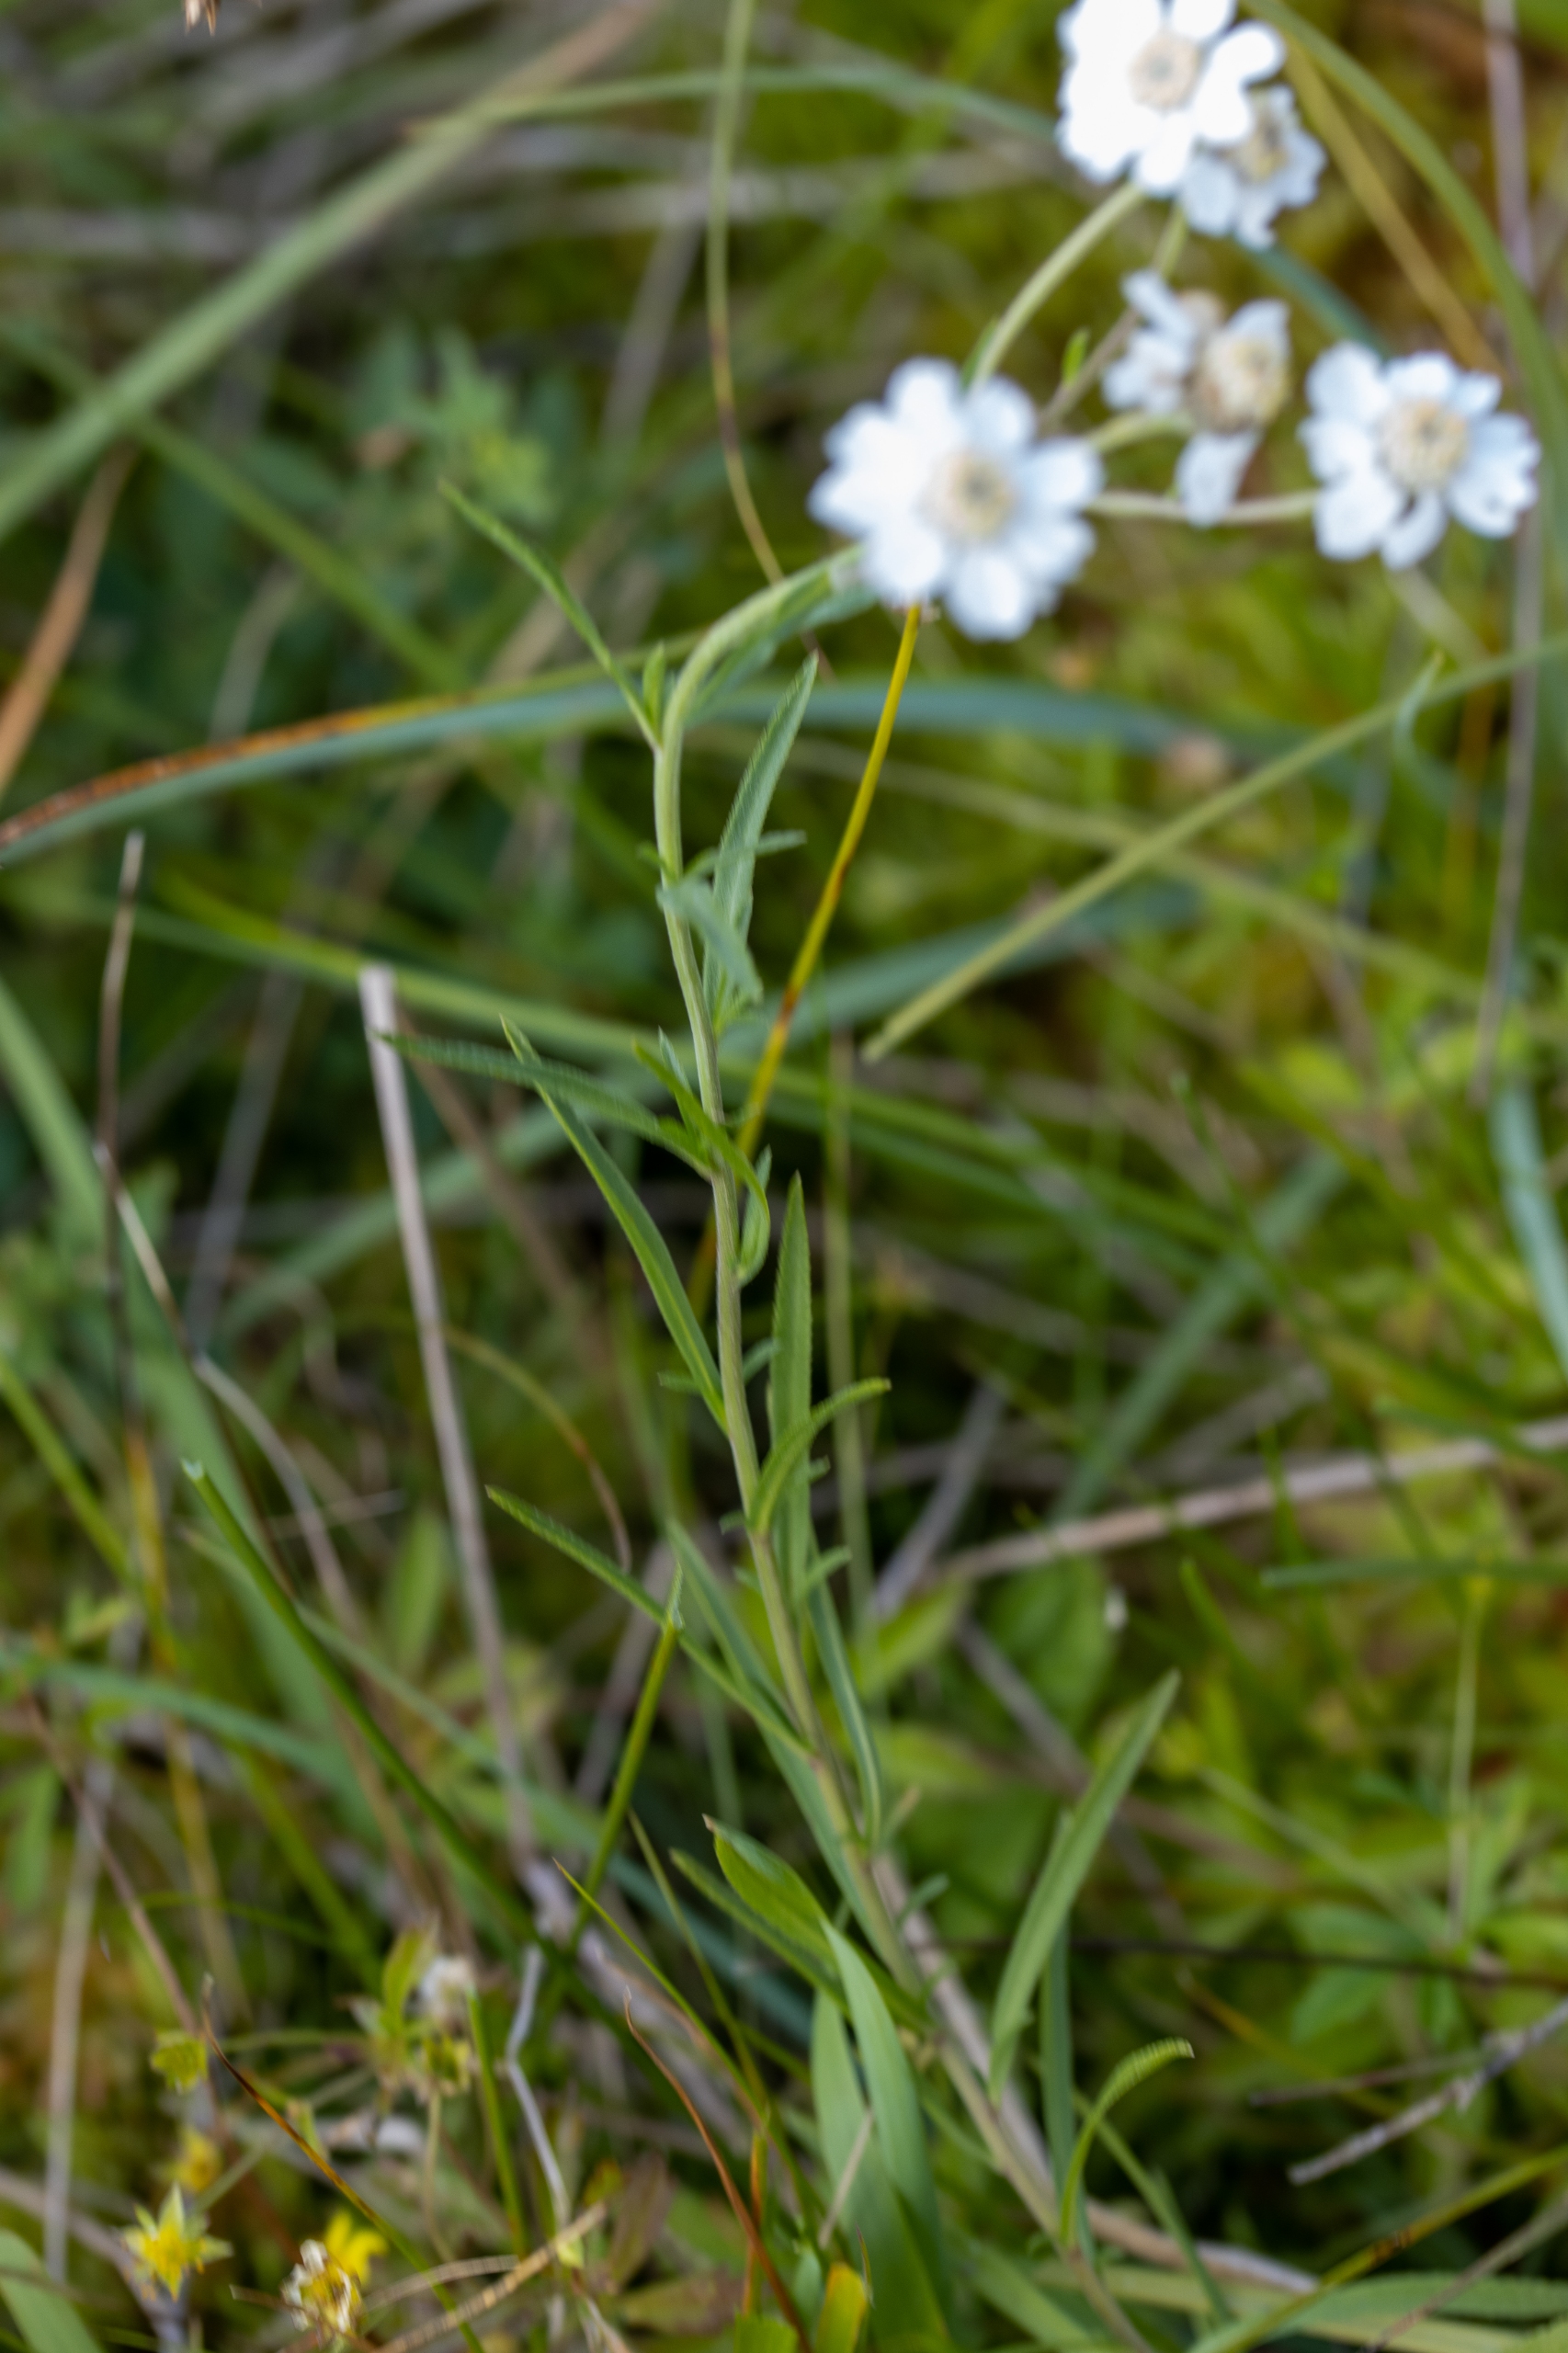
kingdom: Plantae
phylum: Tracheophyta
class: Magnoliopsida
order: Asterales
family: Asteraceae
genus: Achillea
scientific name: Achillea ptarmica
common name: Nyse-røllike
